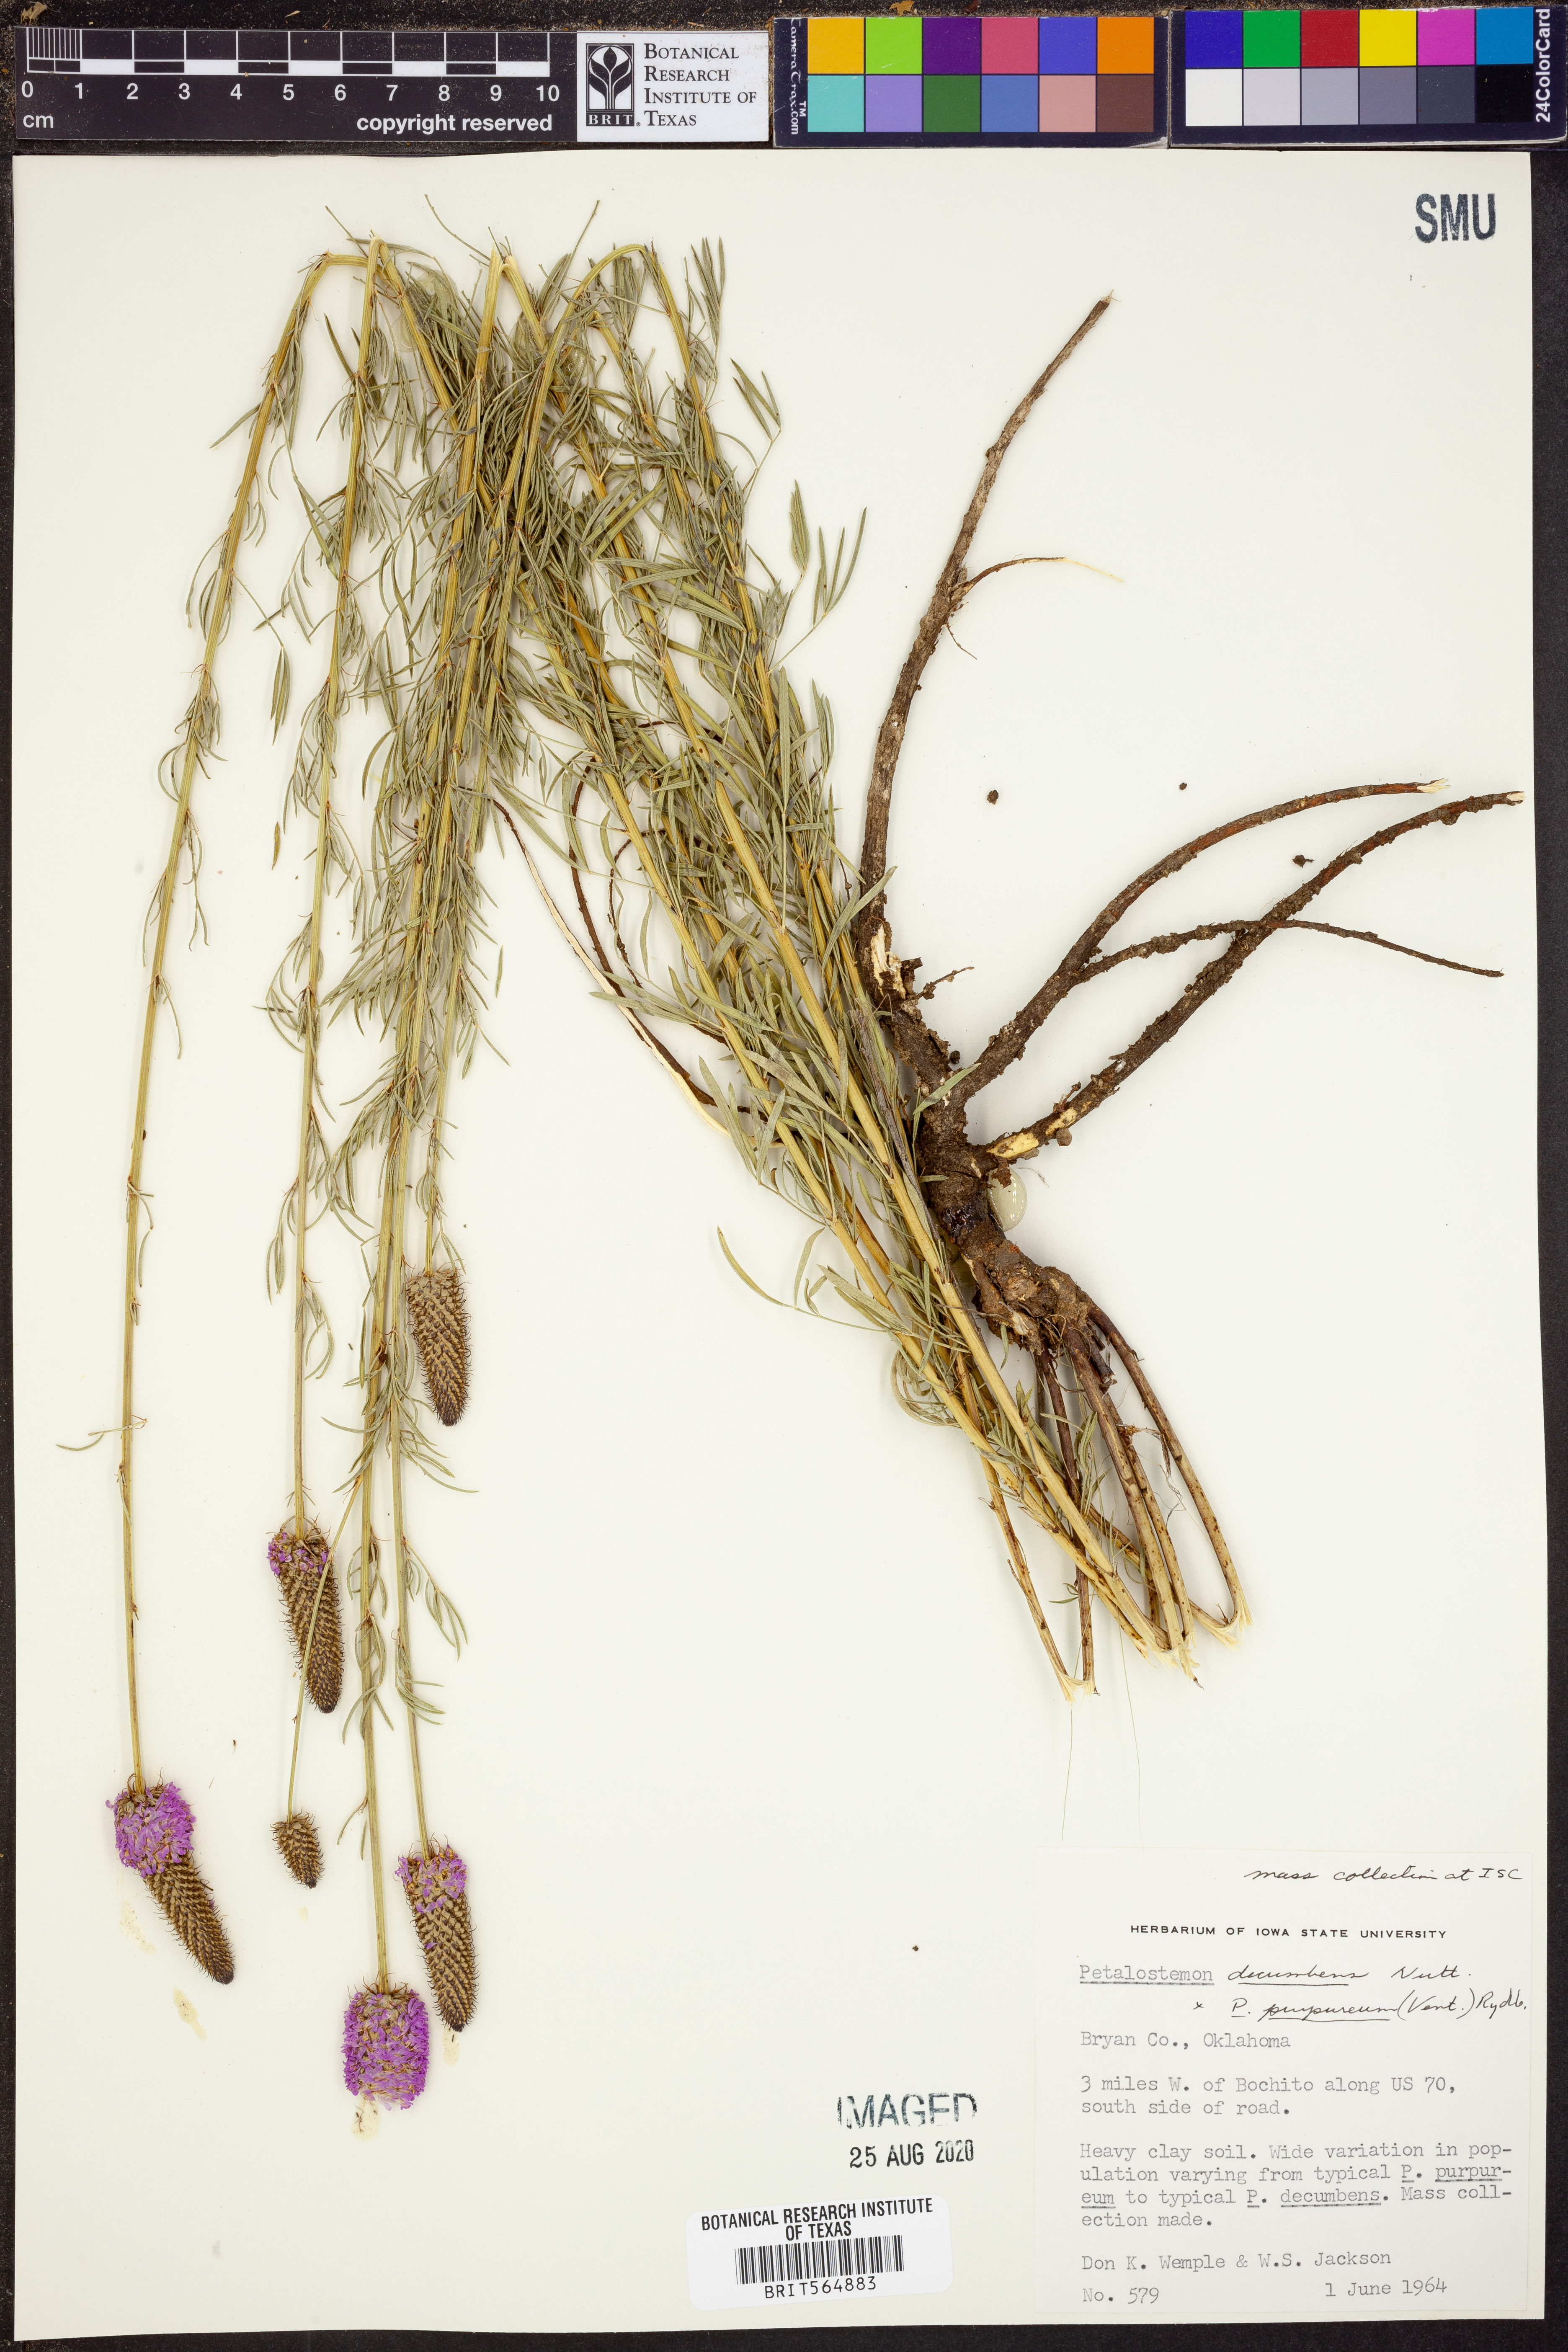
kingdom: Plantae
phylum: Tracheophyta
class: Magnoliopsida
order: Fabales
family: Fabaceae
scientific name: Fabaceae
